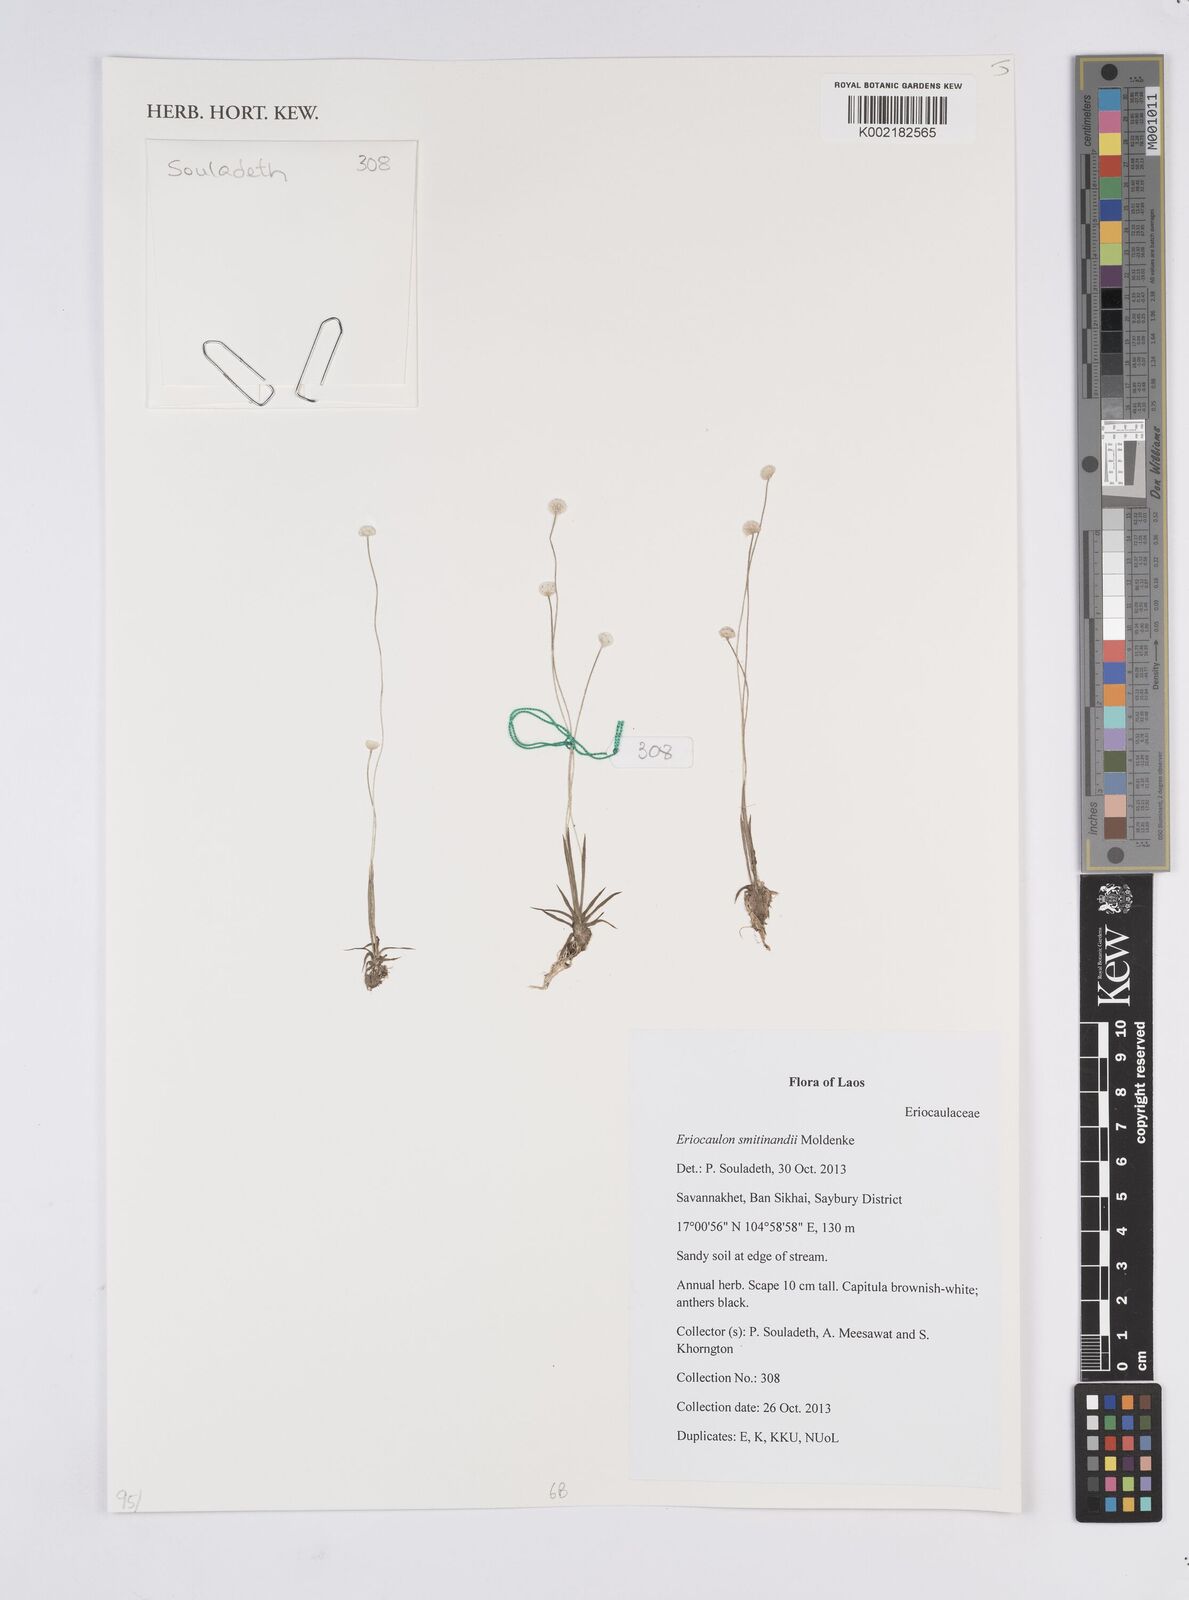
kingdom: Plantae
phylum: Tracheophyta
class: Liliopsida
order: Poales
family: Eriocaulaceae
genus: Eriocaulon
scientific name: Eriocaulon smitinandii
